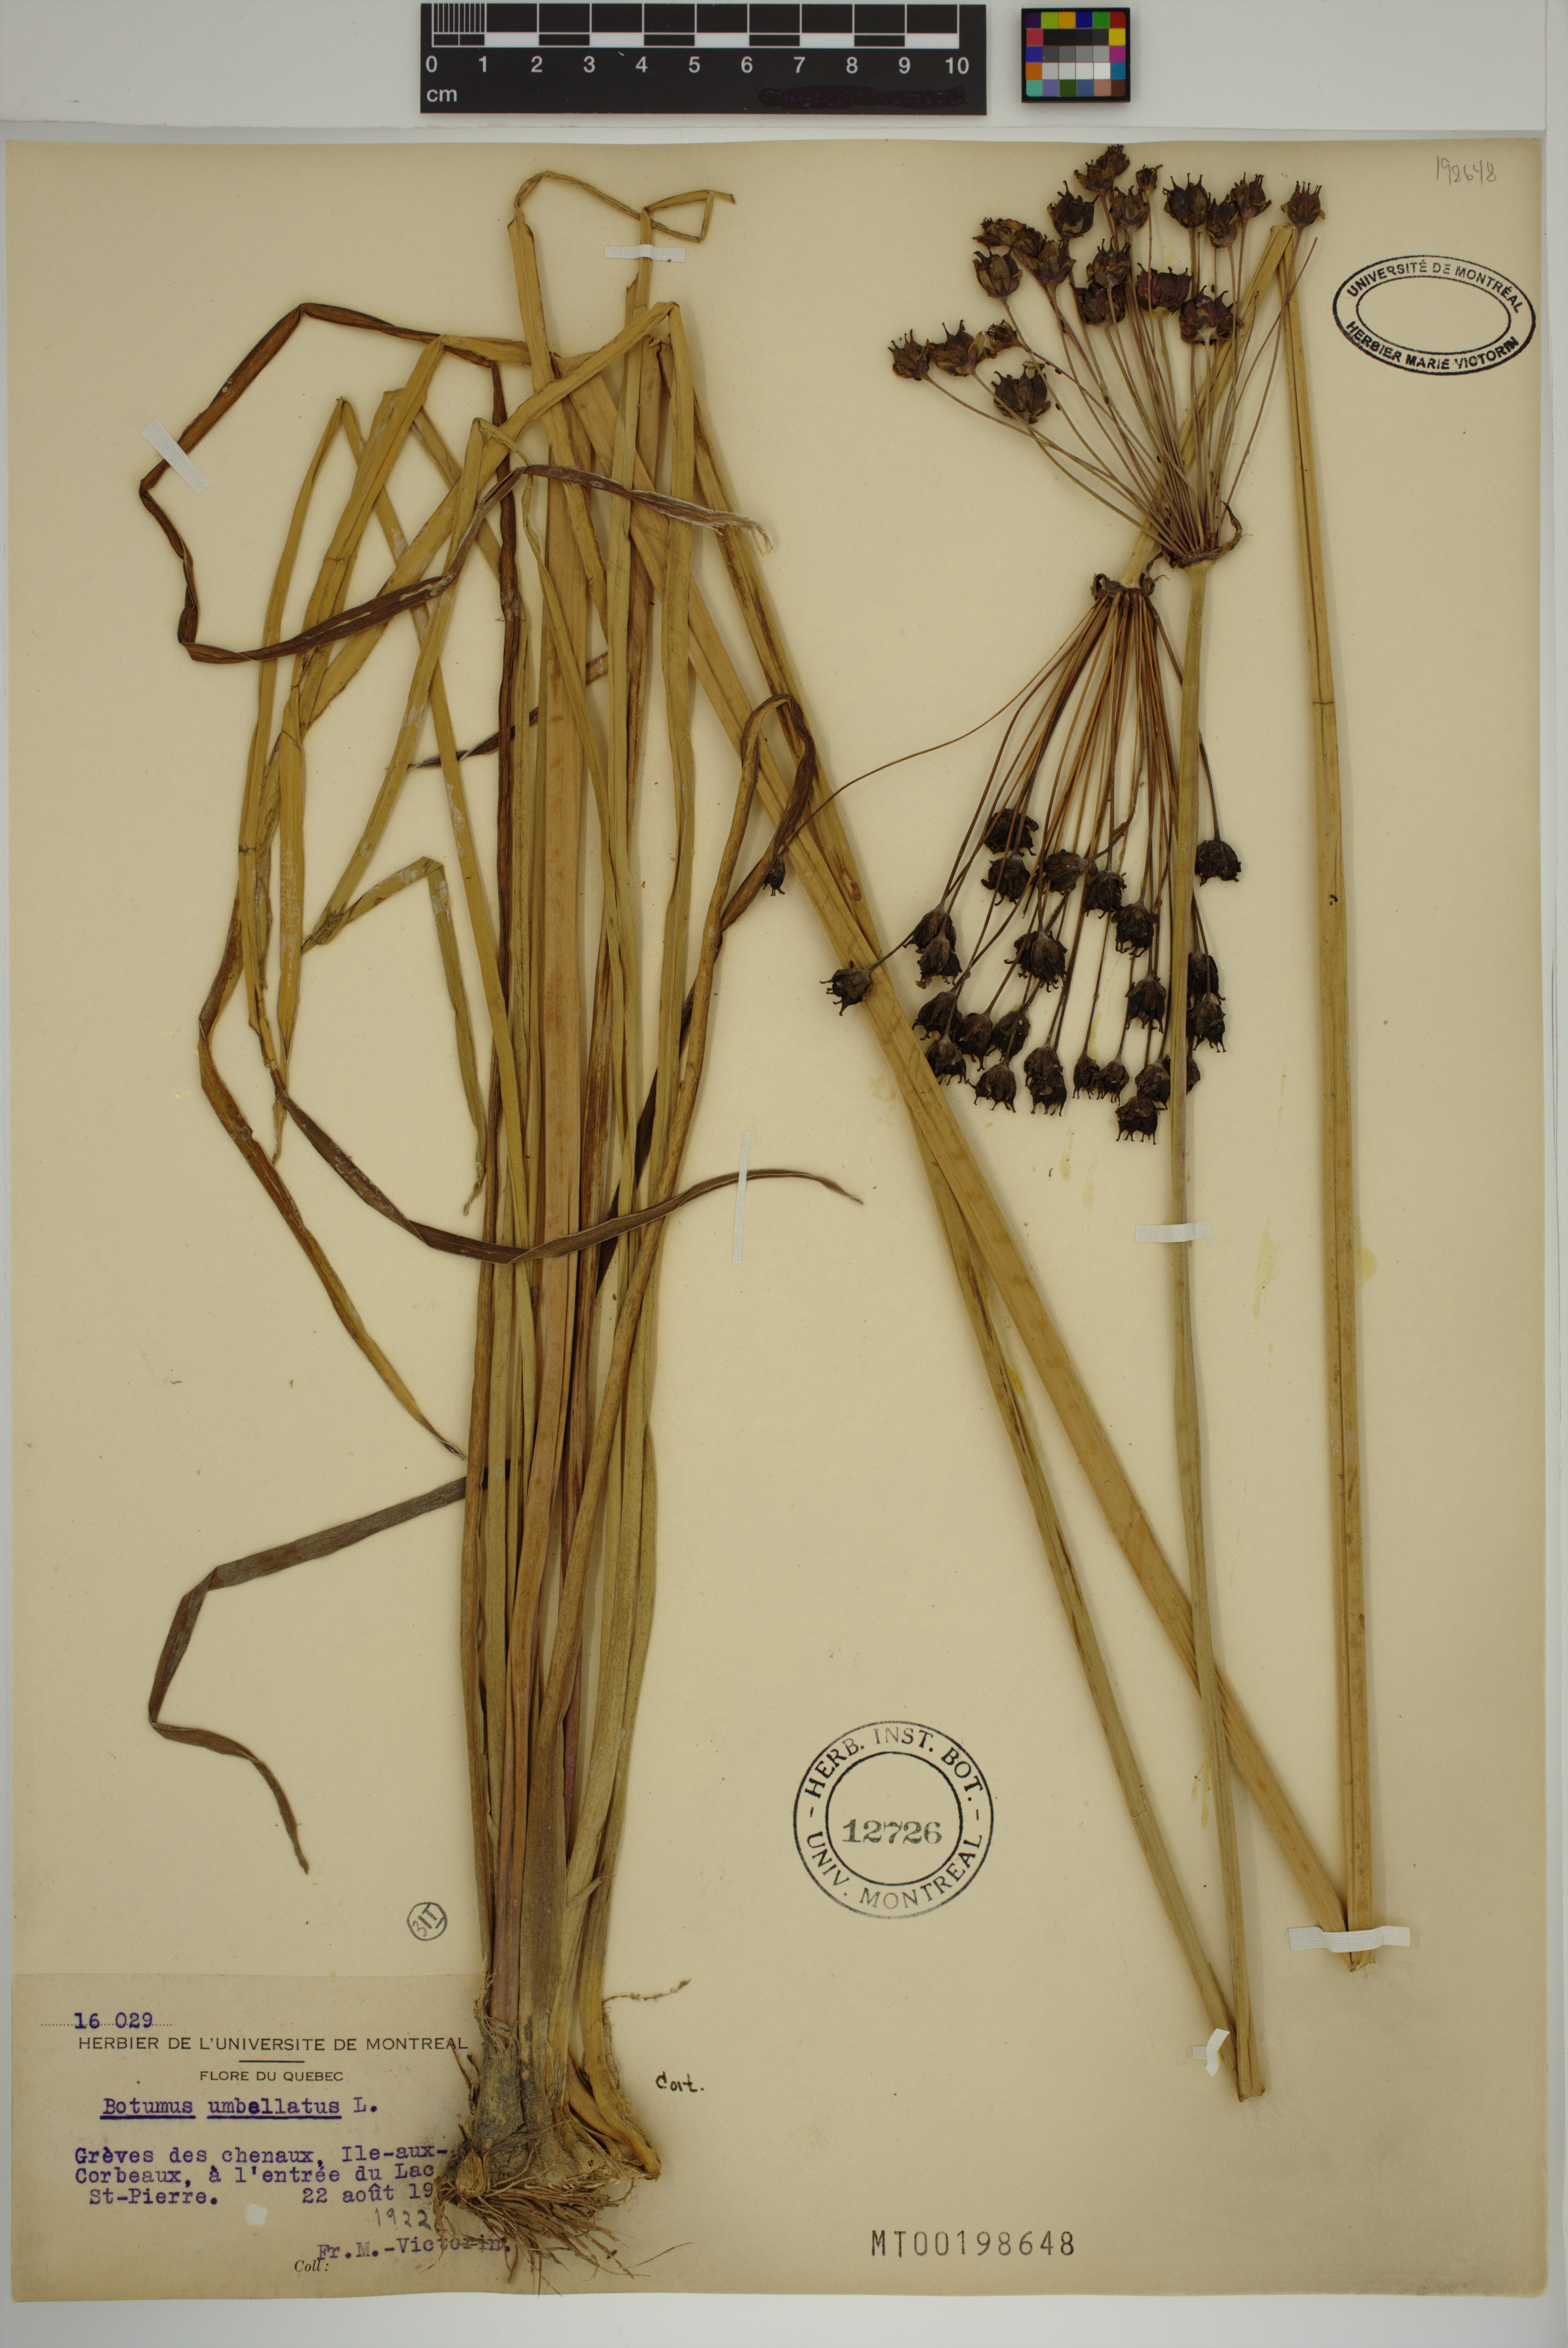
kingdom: Plantae
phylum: Tracheophyta
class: Liliopsida
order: Alismatales
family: Butomaceae
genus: Butomus
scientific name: Butomus umbellatus
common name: Flowering-rush
